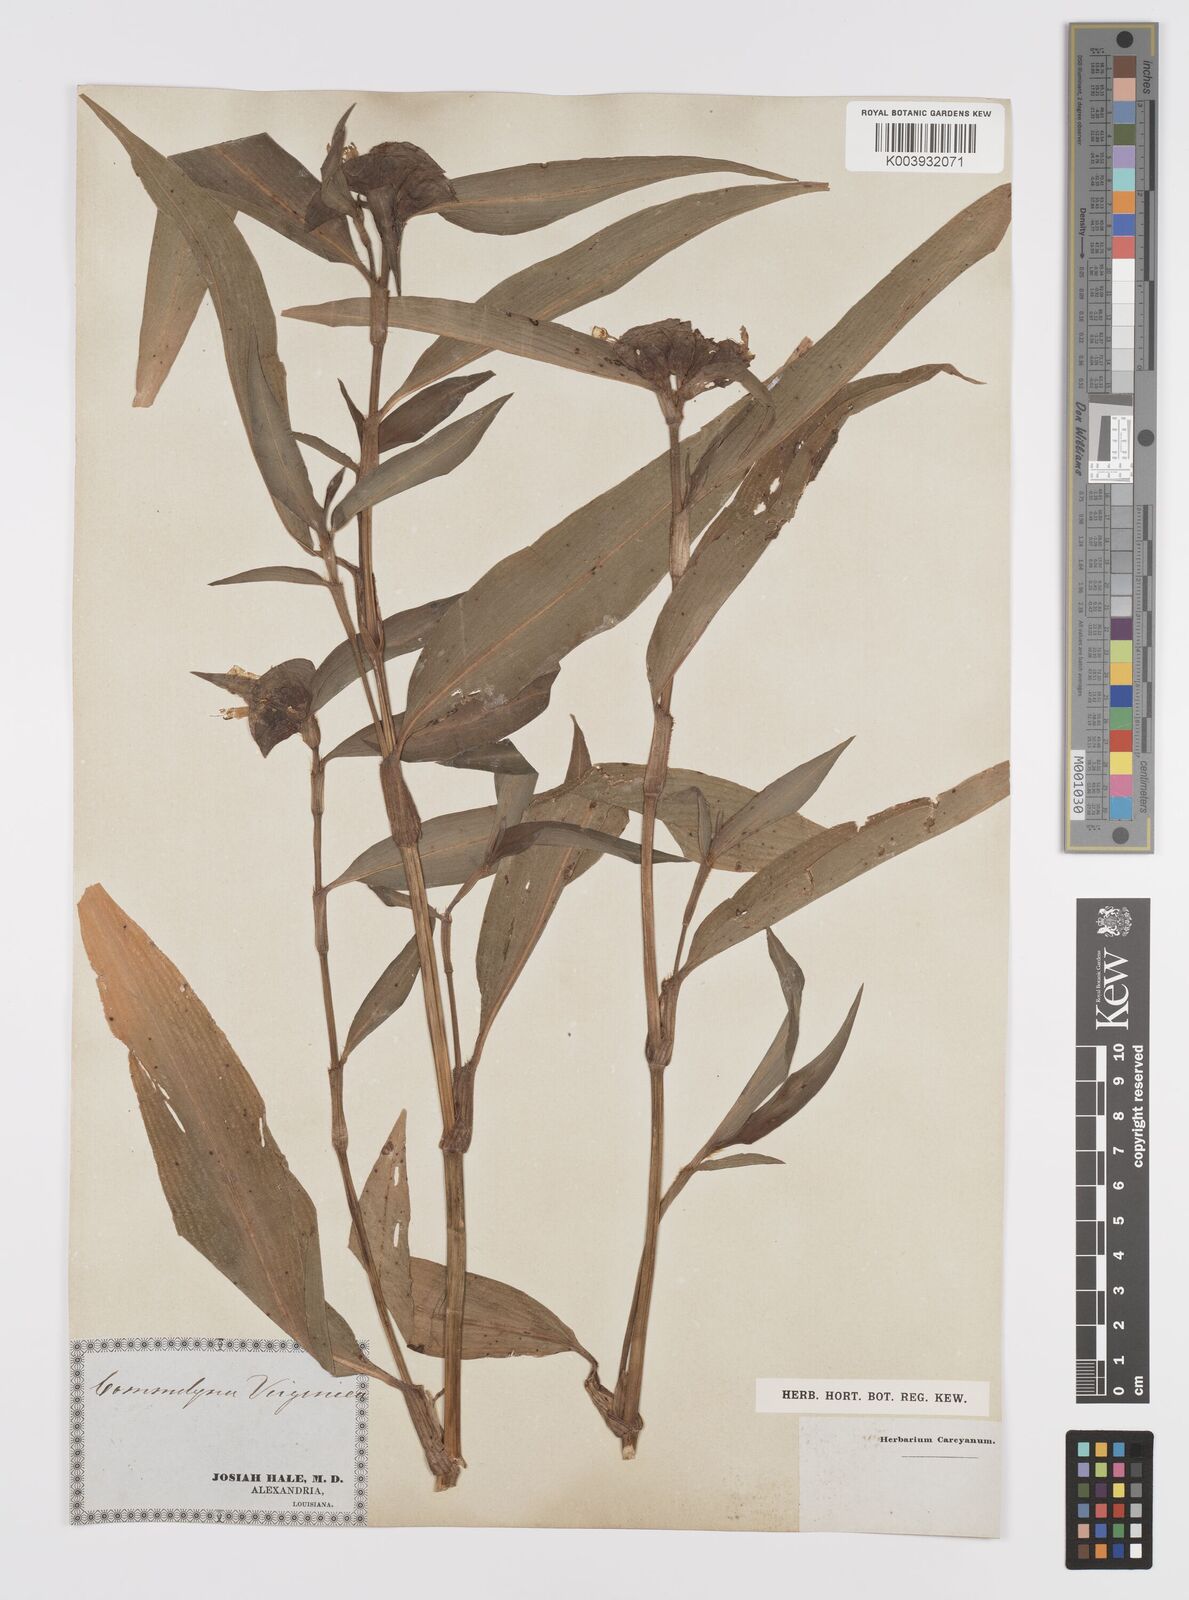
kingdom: Plantae
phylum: Tracheophyta
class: Liliopsida
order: Commelinales
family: Commelinaceae
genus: Commelina
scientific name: Commelina virginica
